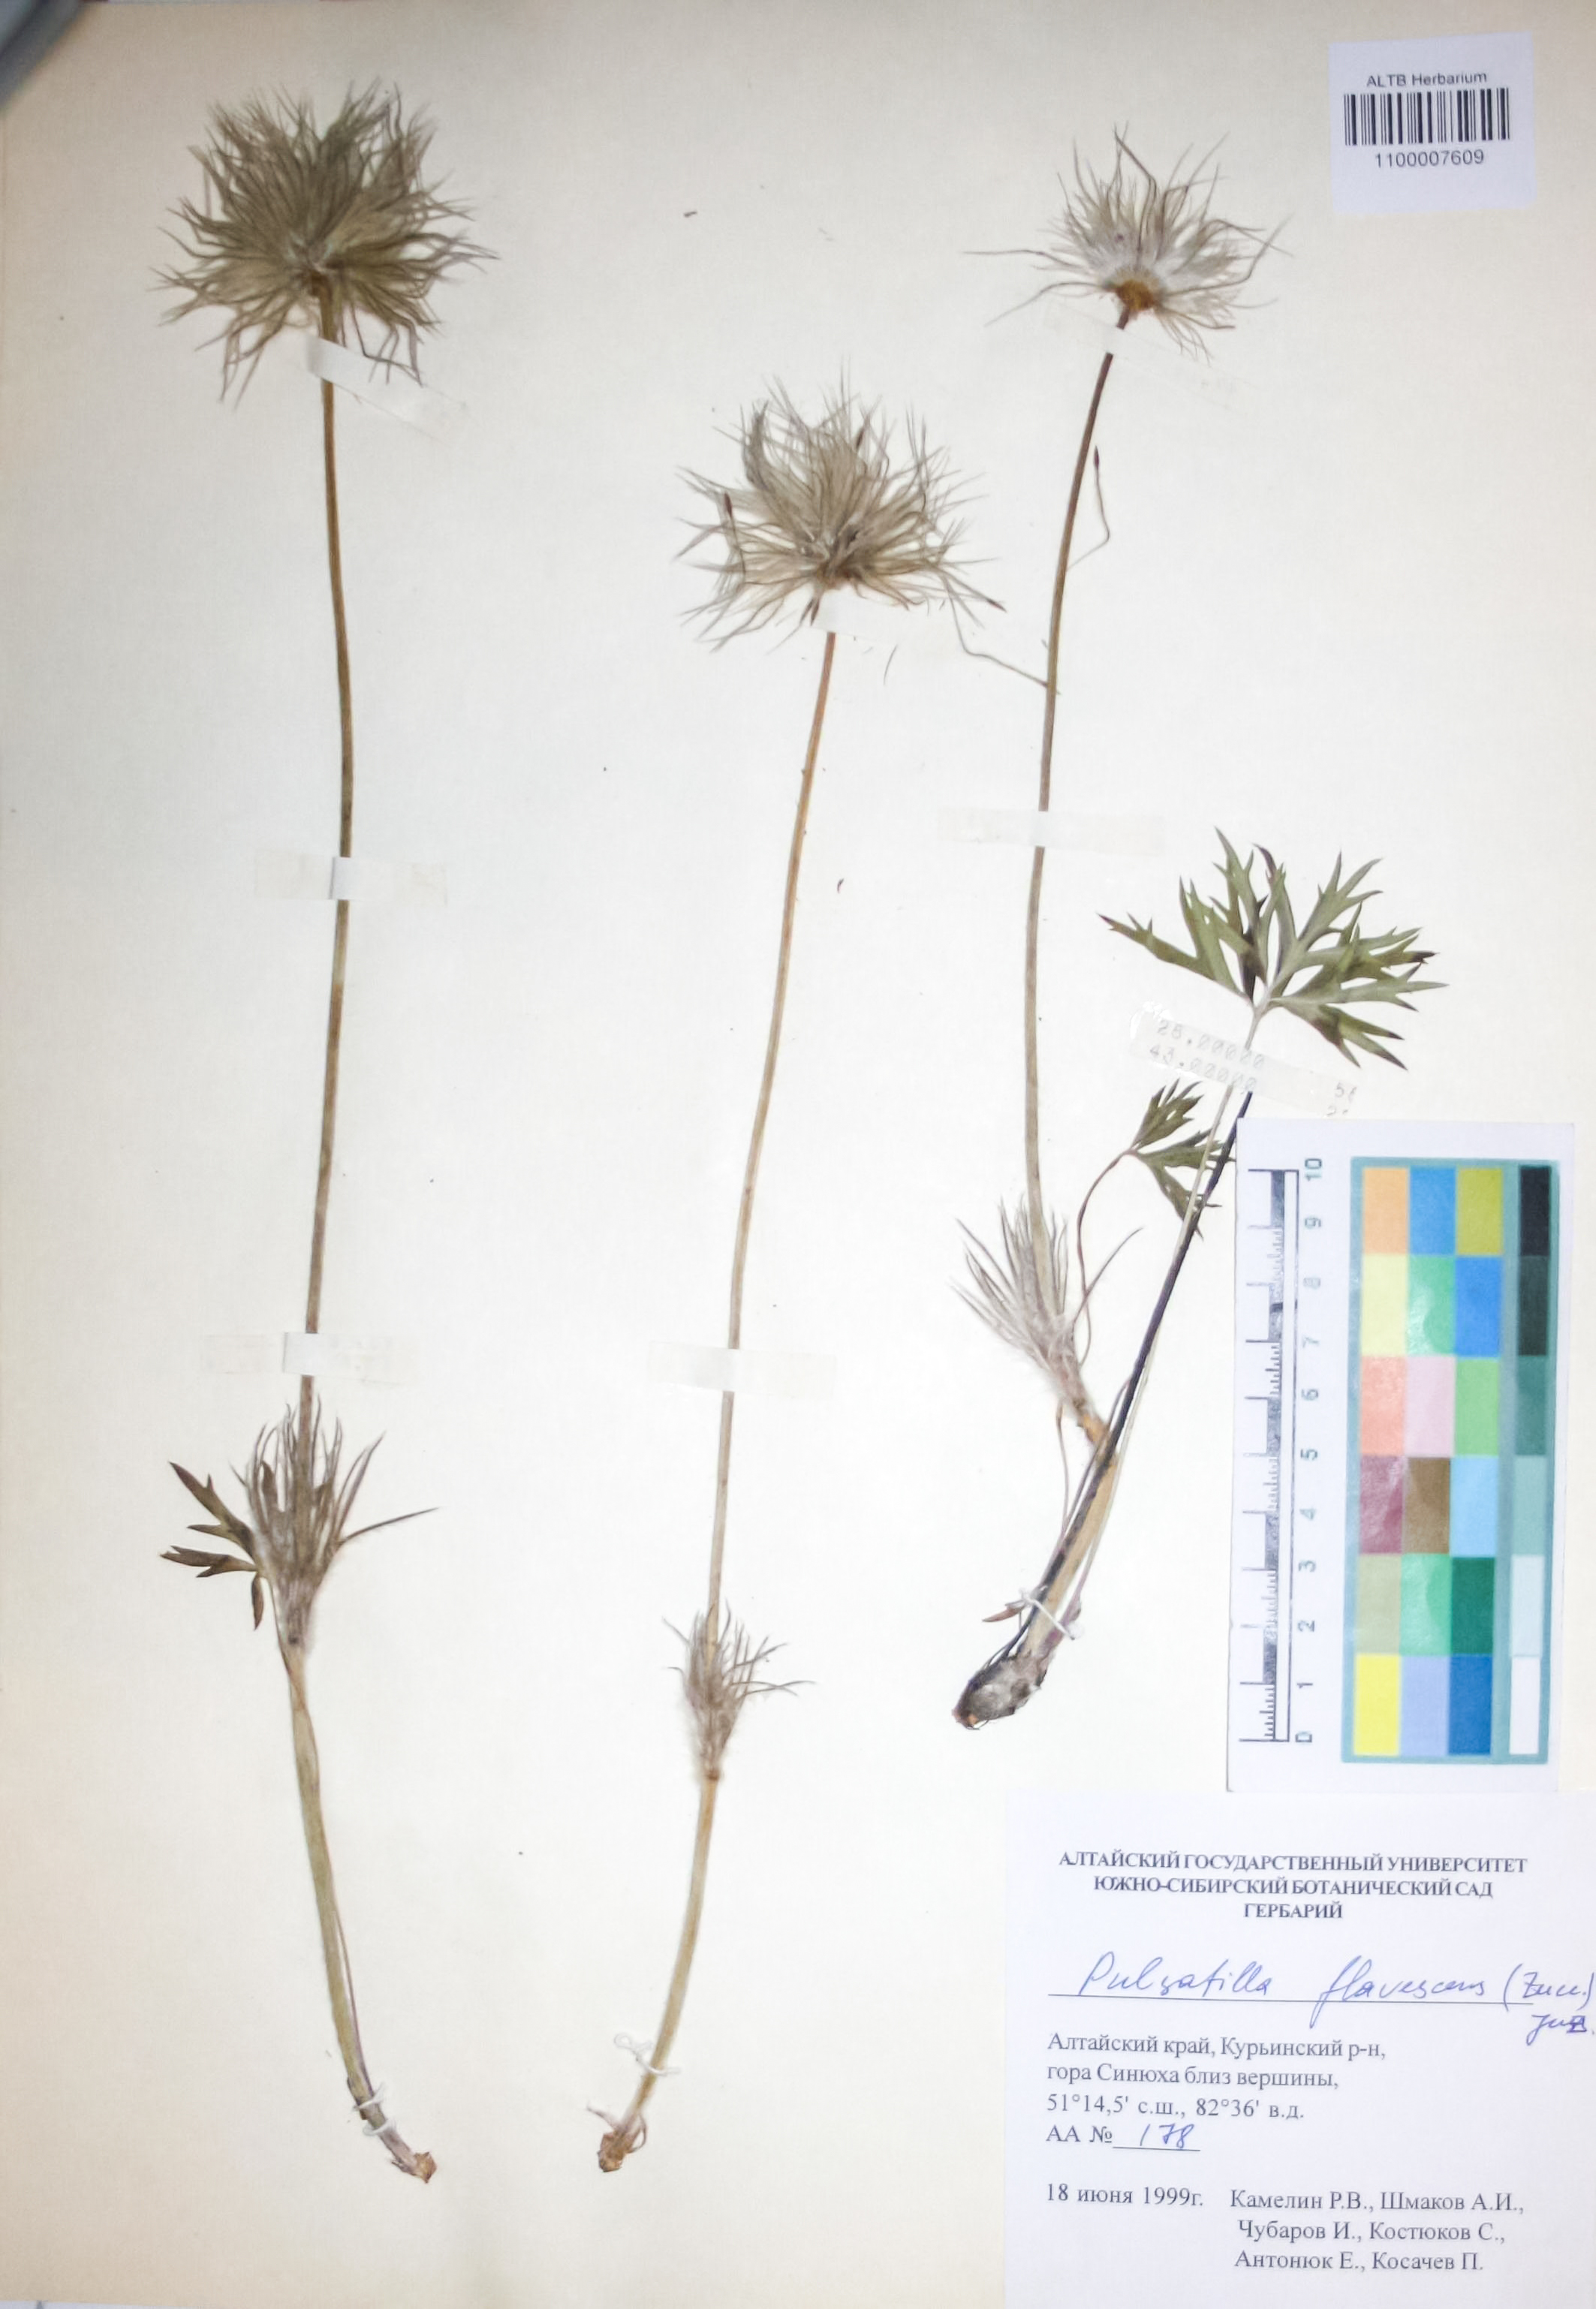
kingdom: Plantae
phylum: Tracheophyta
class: Magnoliopsida
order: Ranunculales
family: Ranunculaceae
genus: Pulsatilla
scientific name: Pulsatilla patens
